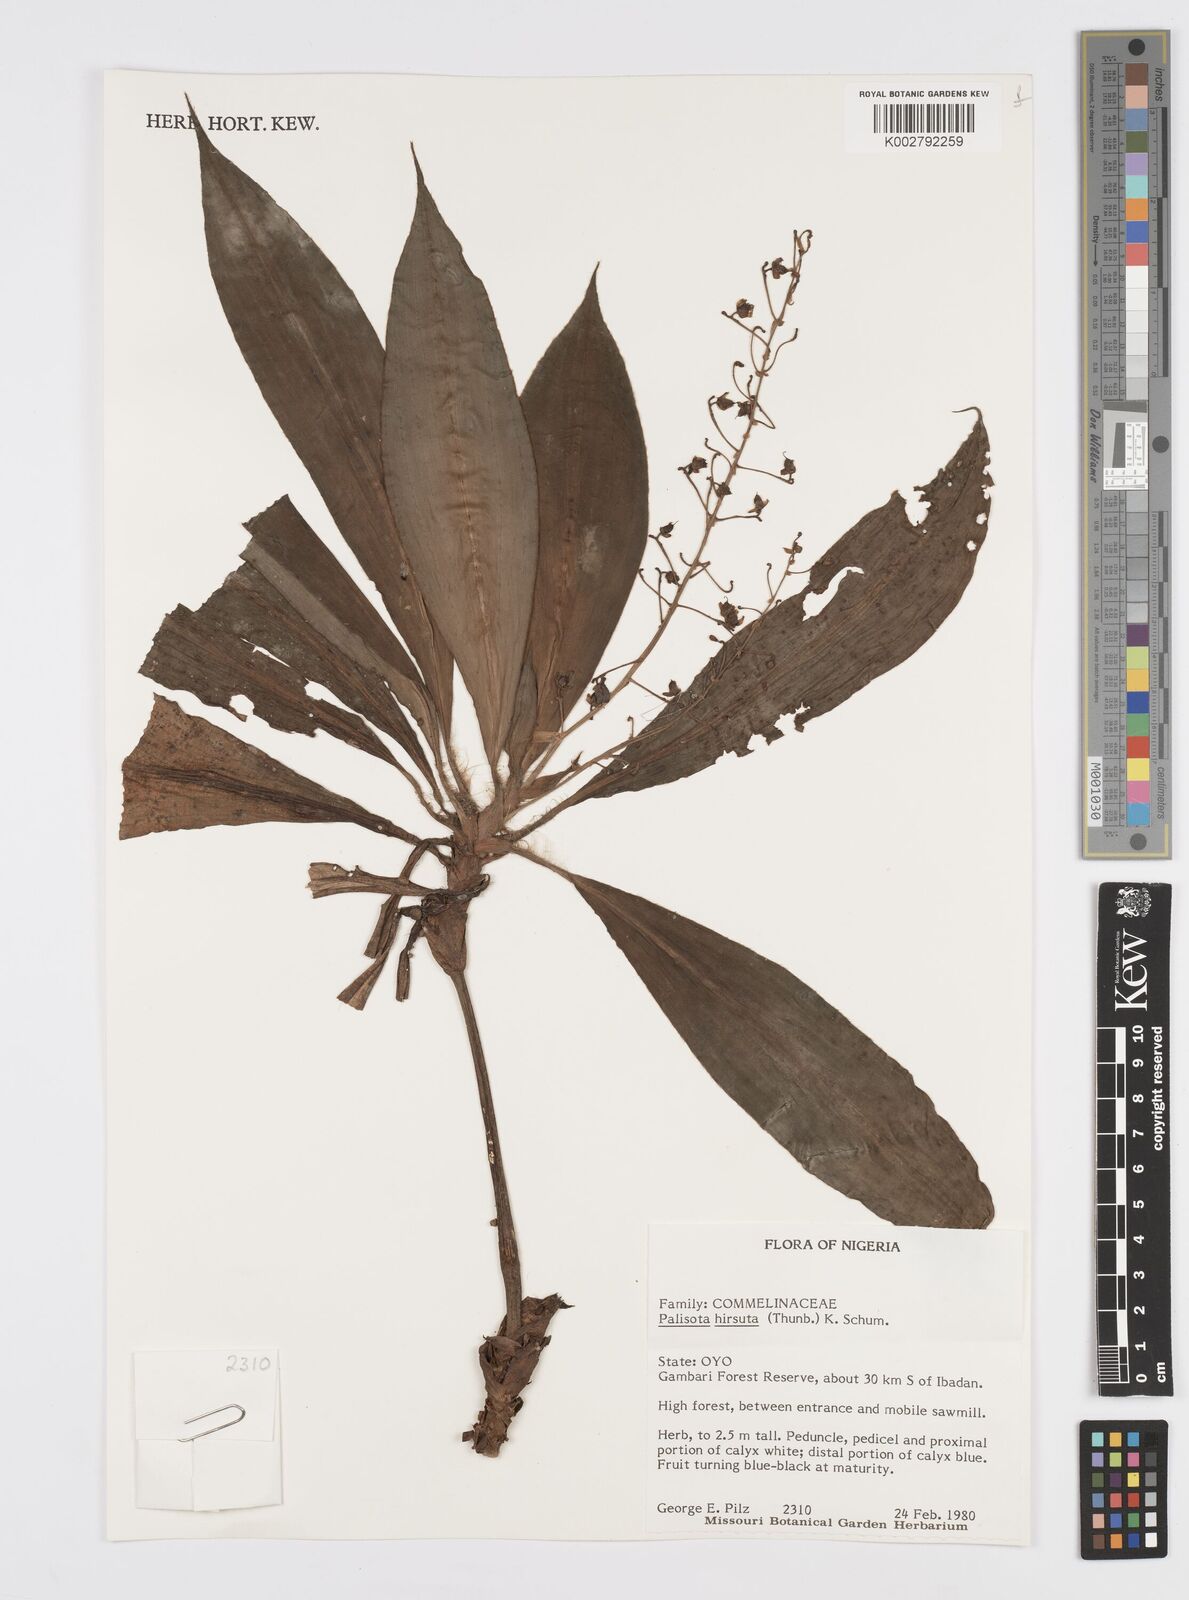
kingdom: Plantae
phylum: Tracheophyta
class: Liliopsida
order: Commelinales
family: Commelinaceae
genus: Palisota
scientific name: Palisota hirsuta
